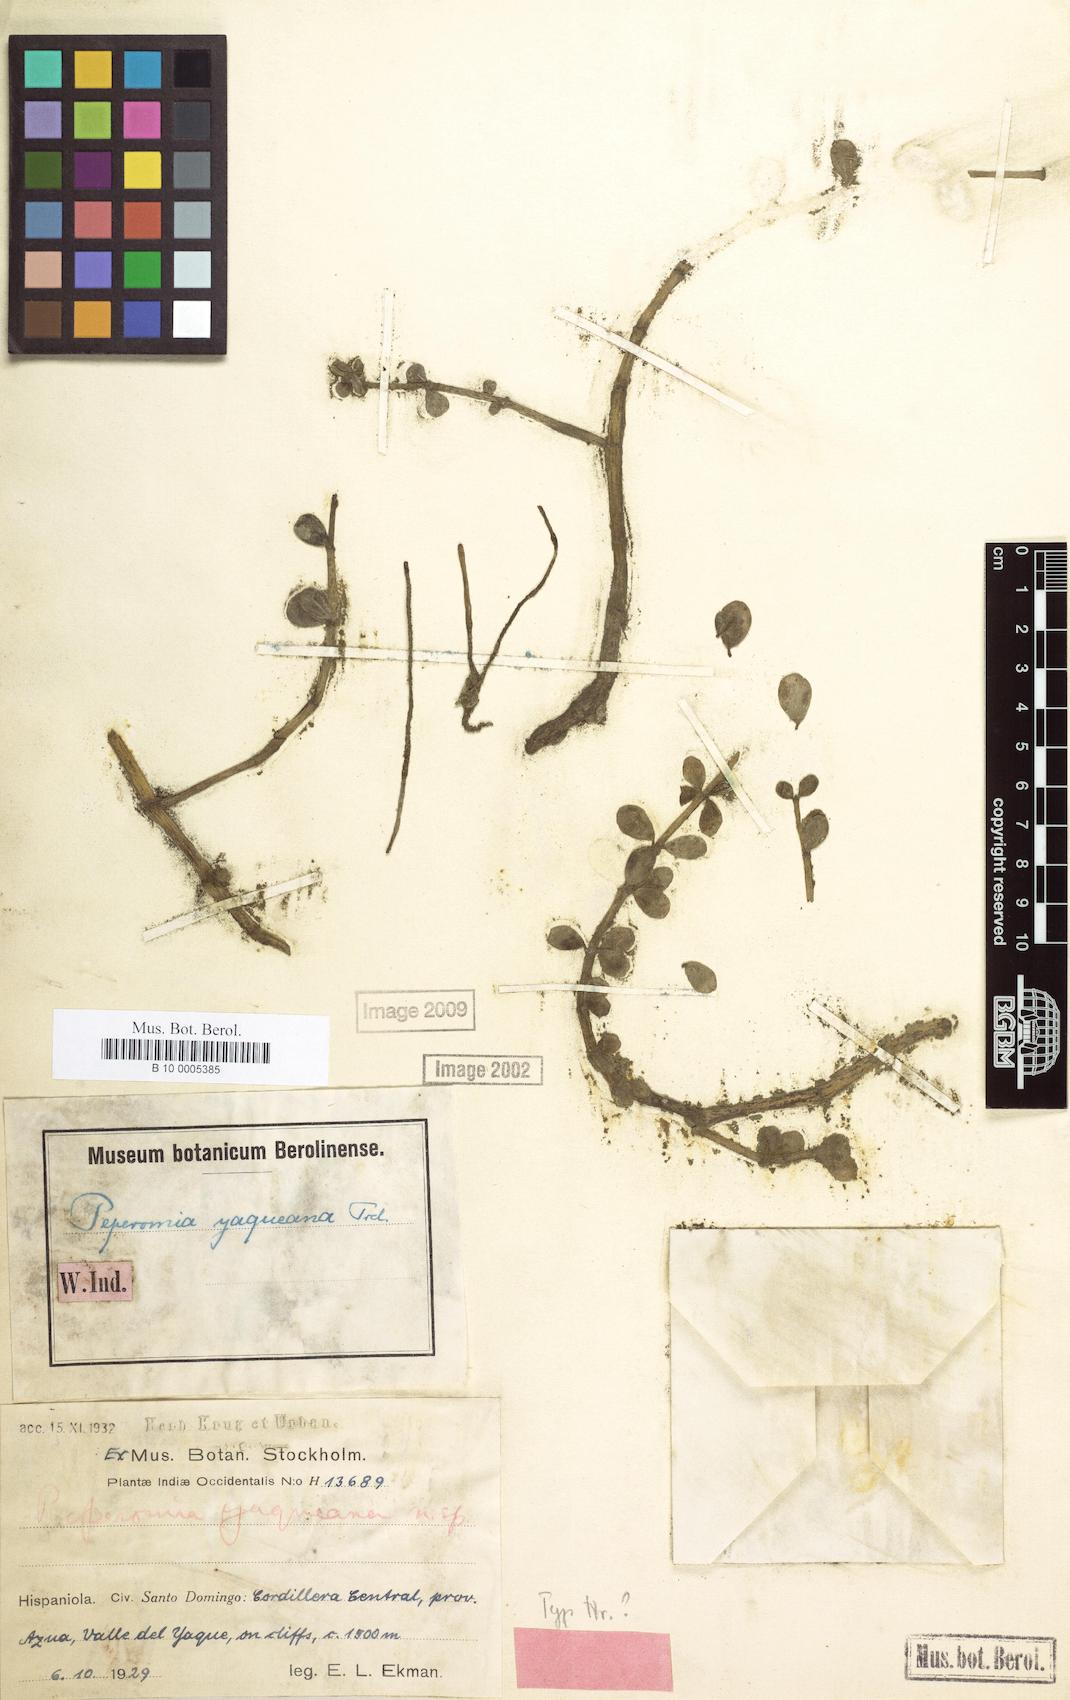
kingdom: Plantae
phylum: Tracheophyta
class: Magnoliopsida
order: Piperales
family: Piperaceae
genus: Peperomia
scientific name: Peperomia quadrifolia
